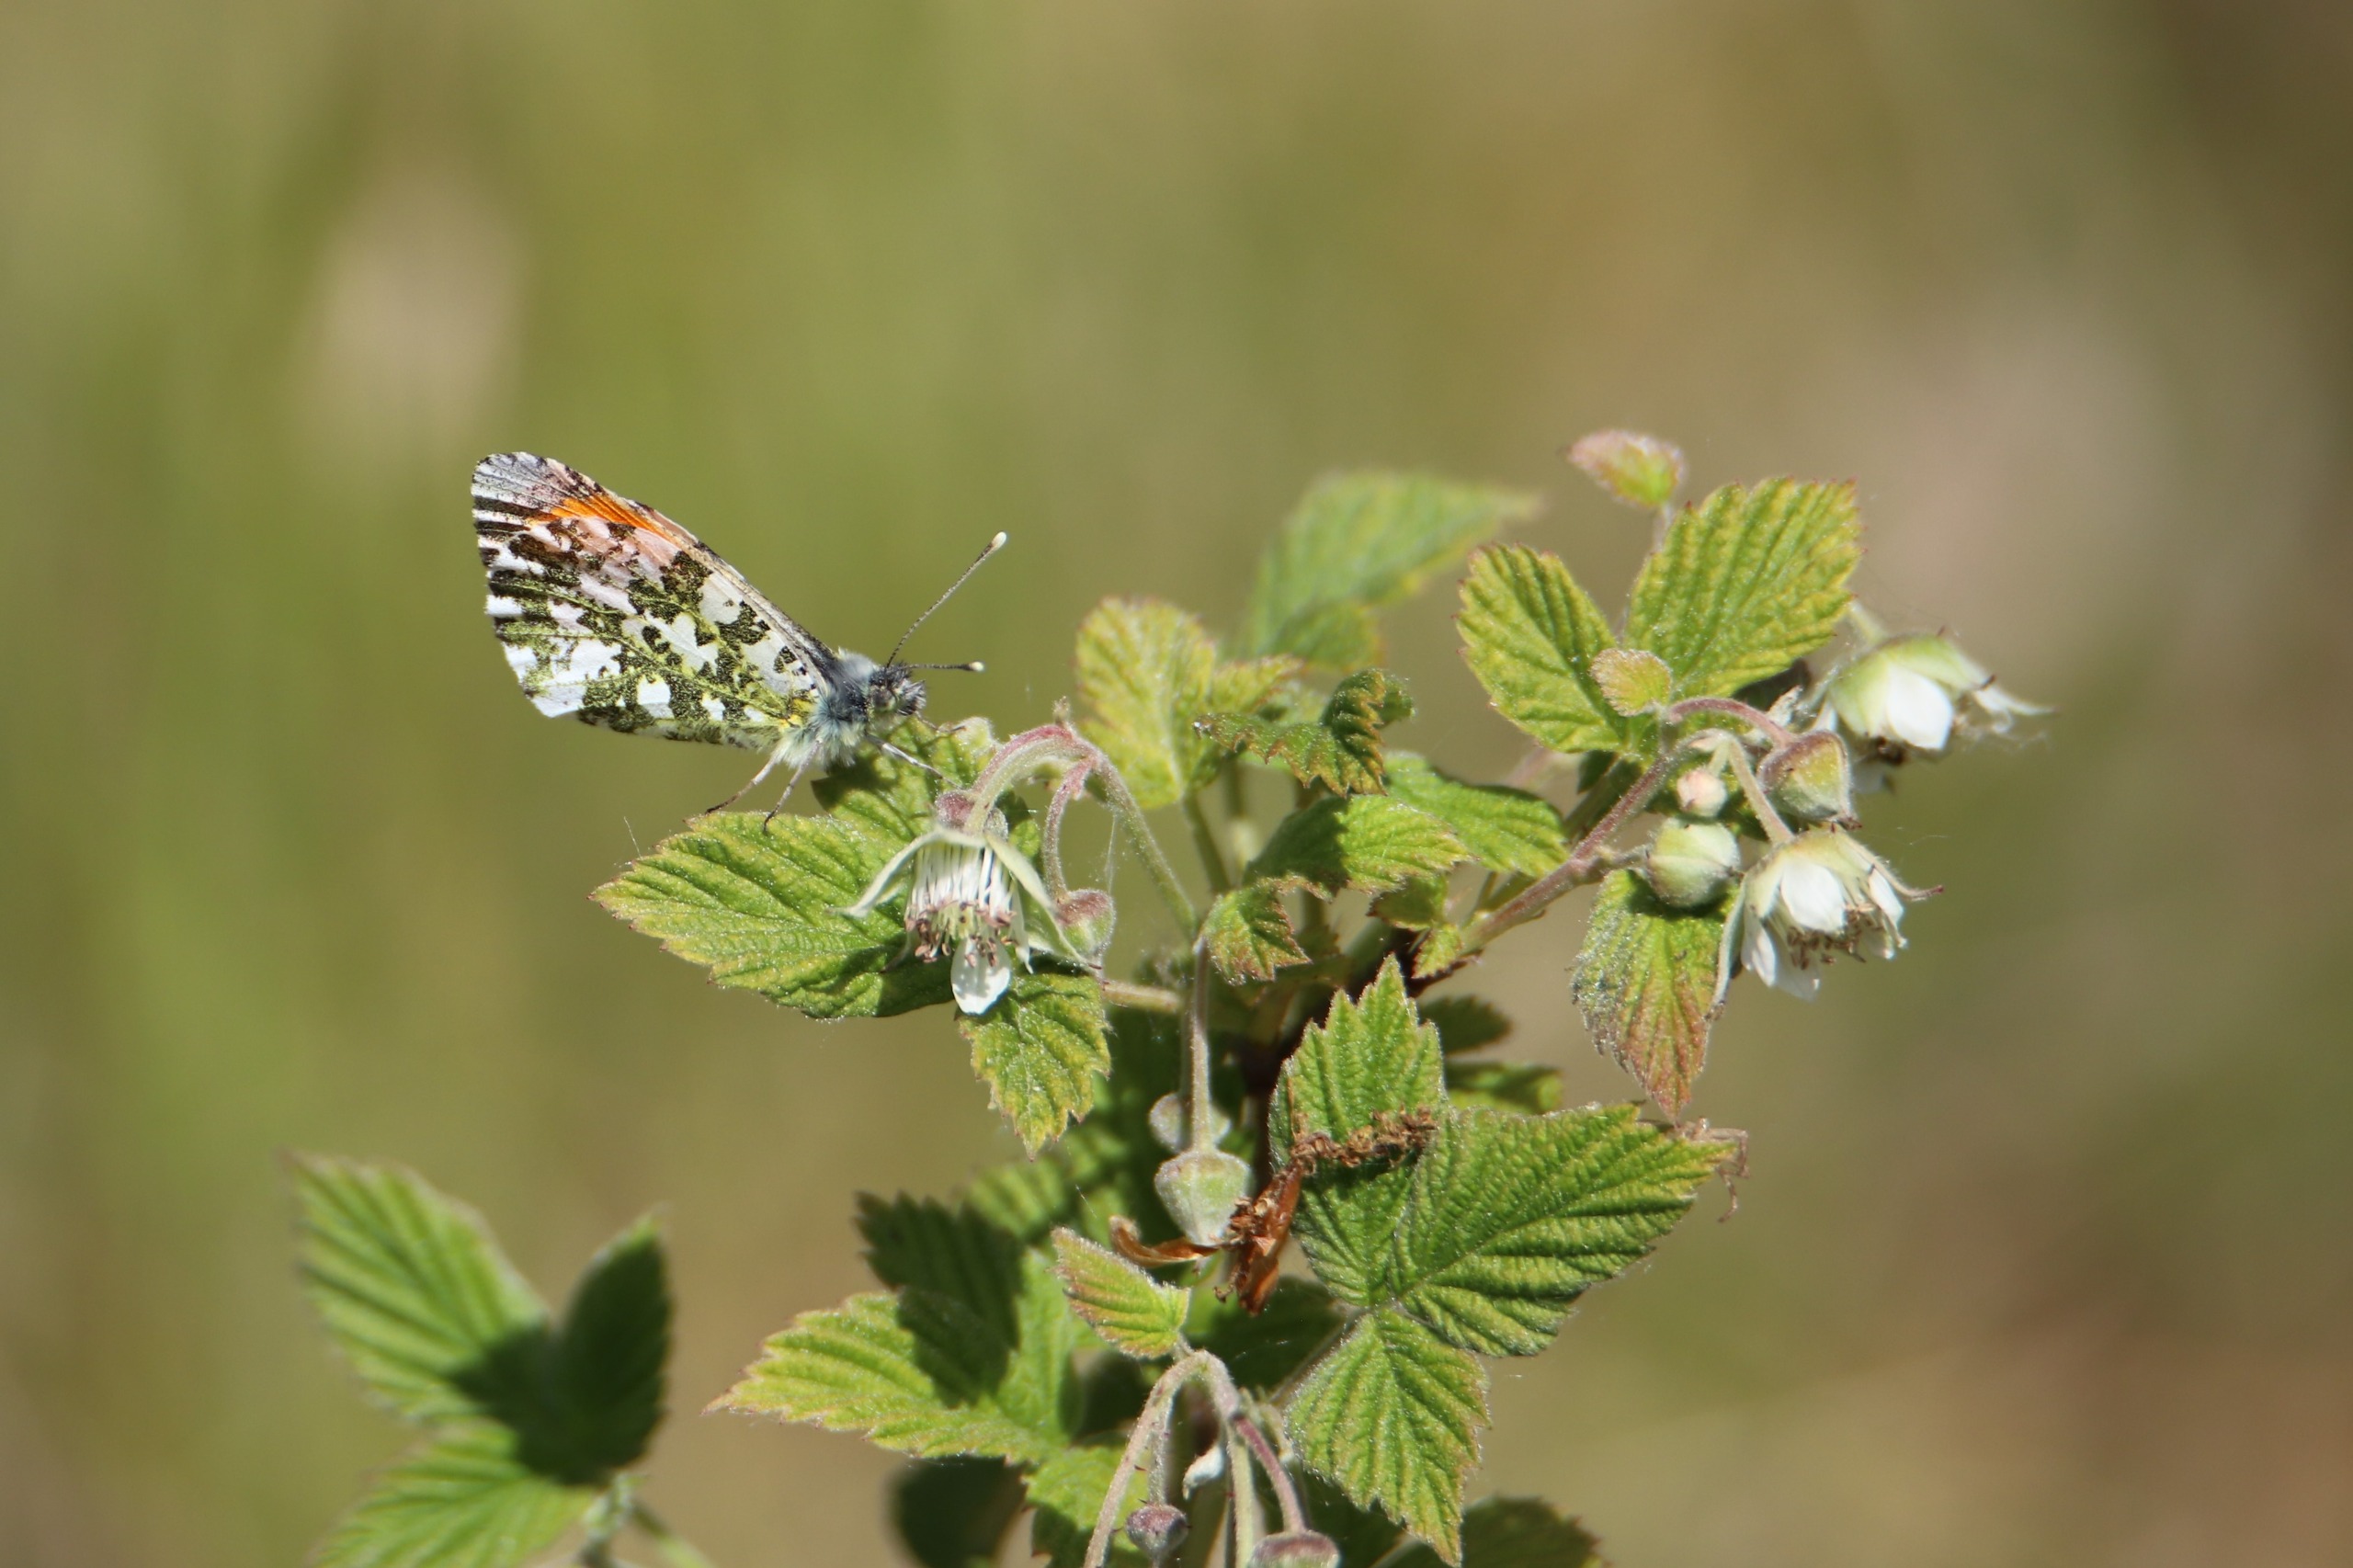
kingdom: Animalia
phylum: Arthropoda
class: Insecta
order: Lepidoptera
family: Pieridae
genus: Anthocharis
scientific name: Anthocharis cardamines
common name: Aurora
